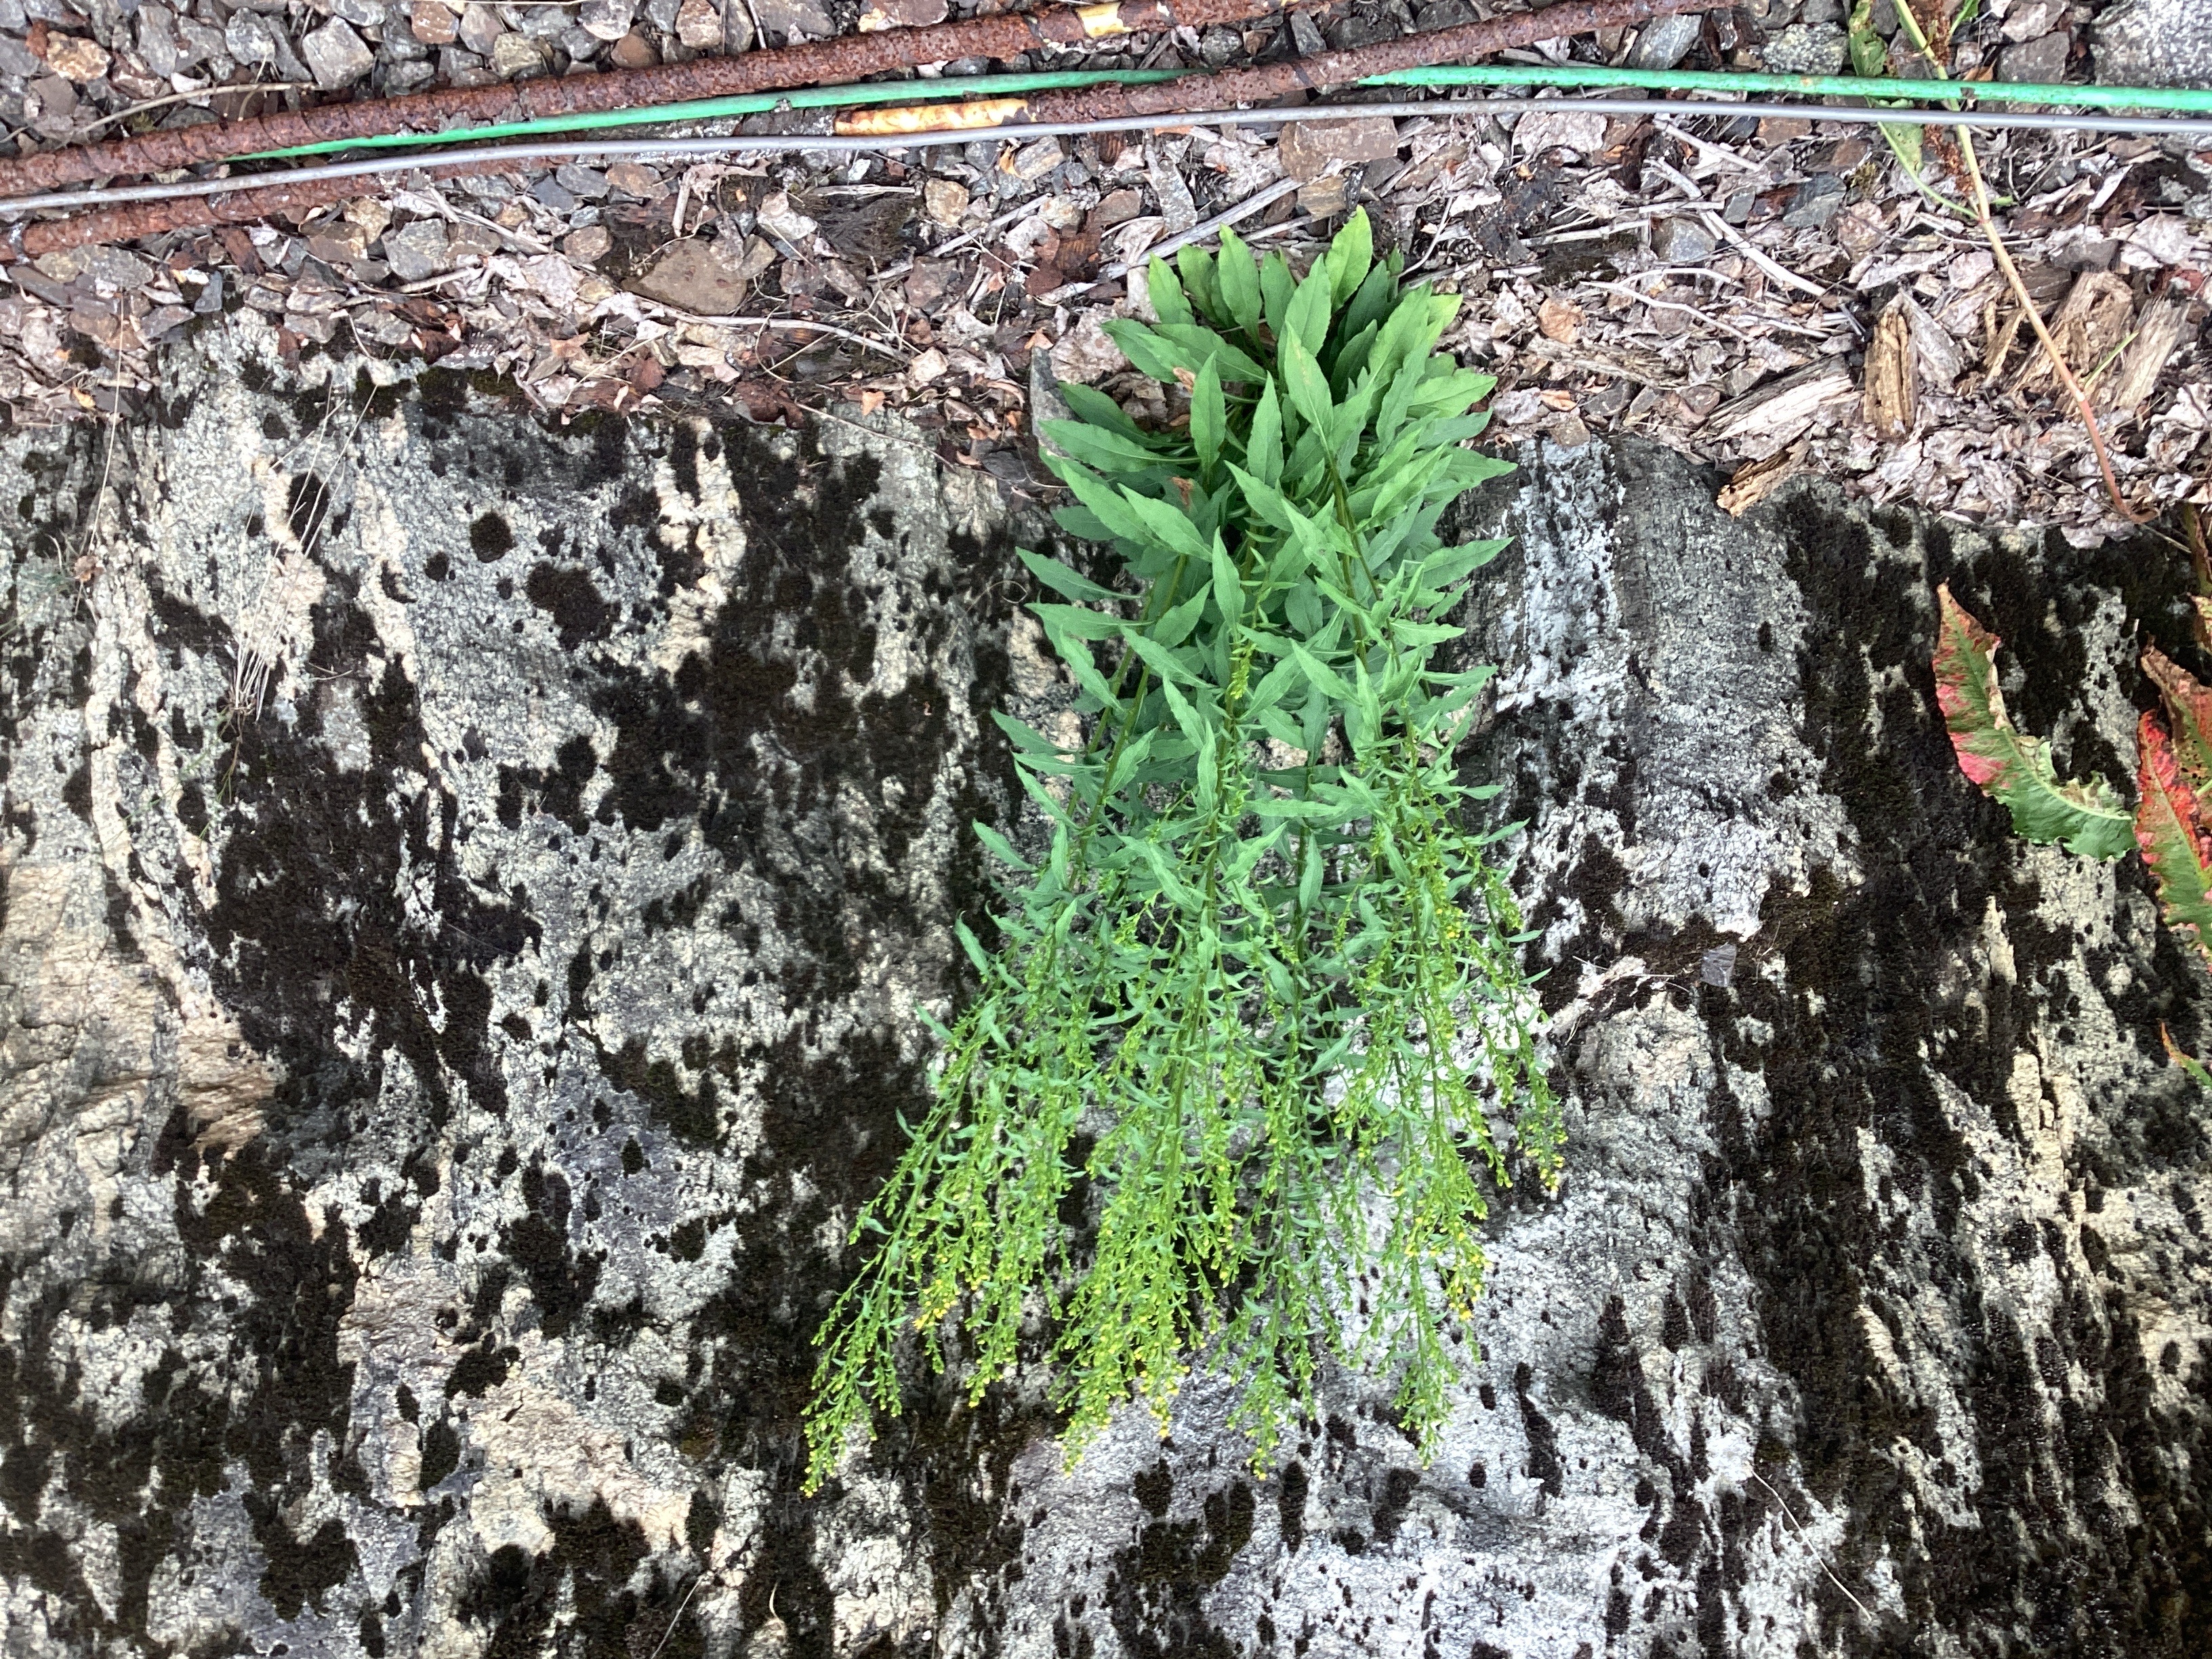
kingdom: Plantae
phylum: Tracheophyta
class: Magnoliopsida
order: Asterales
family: Asteraceae
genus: Solidago
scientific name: Solidago canadensis
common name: kanadagullris
